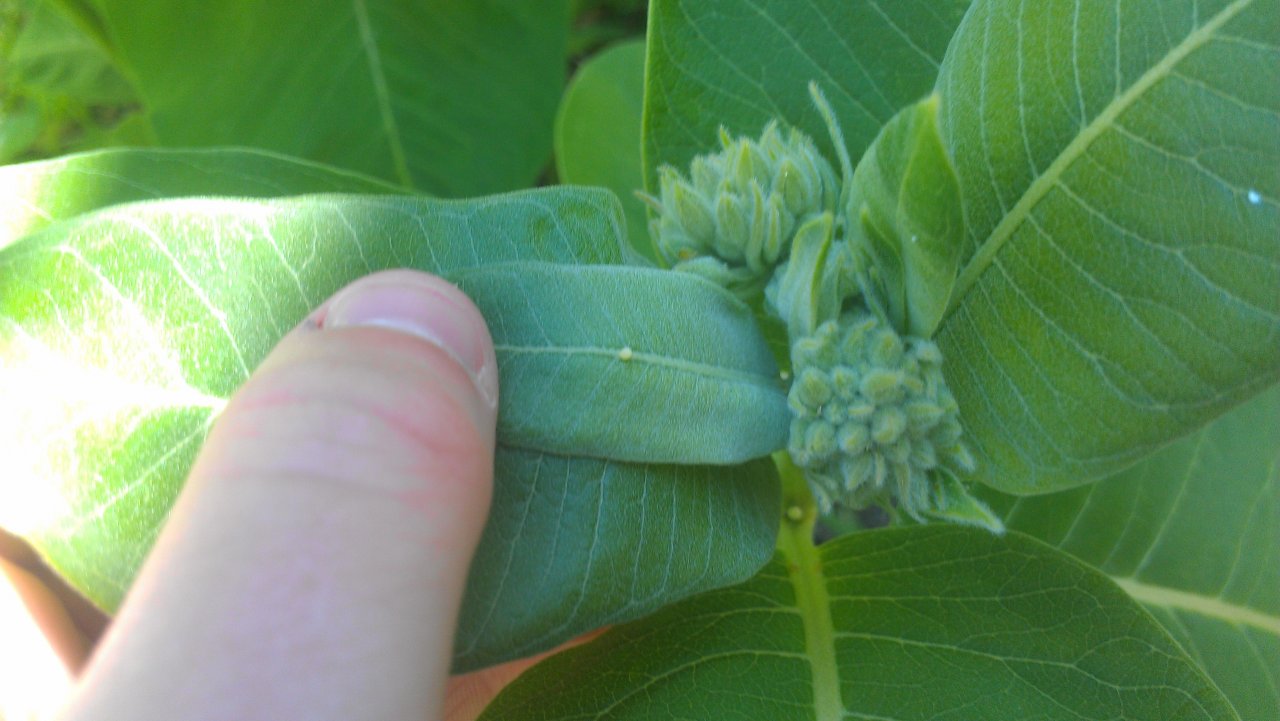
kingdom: Animalia
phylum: Arthropoda
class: Insecta
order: Lepidoptera
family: Nymphalidae
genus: Danaus
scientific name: Danaus plexippus
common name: Monarch
